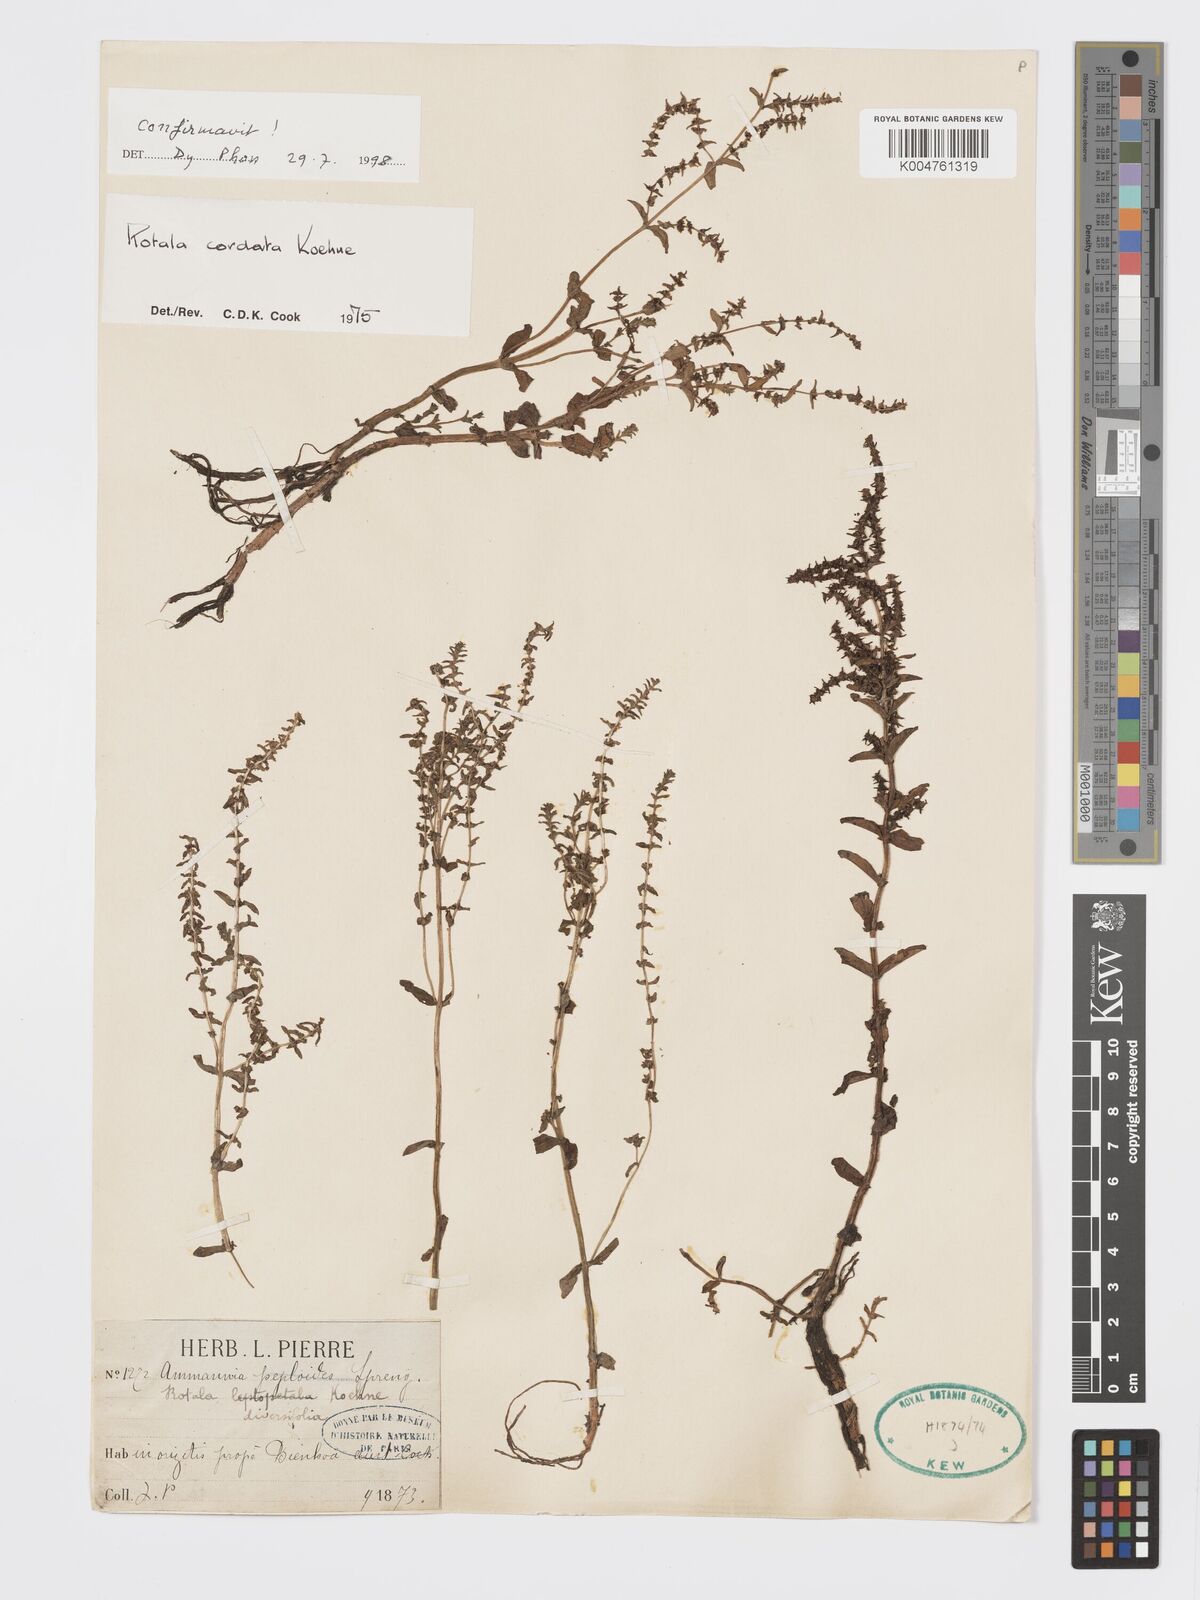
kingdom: Plantae
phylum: Tracheophyta
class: Magnoliopsida
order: Myrtales
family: Lythraceae
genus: Rotala
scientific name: Rotala cordata
